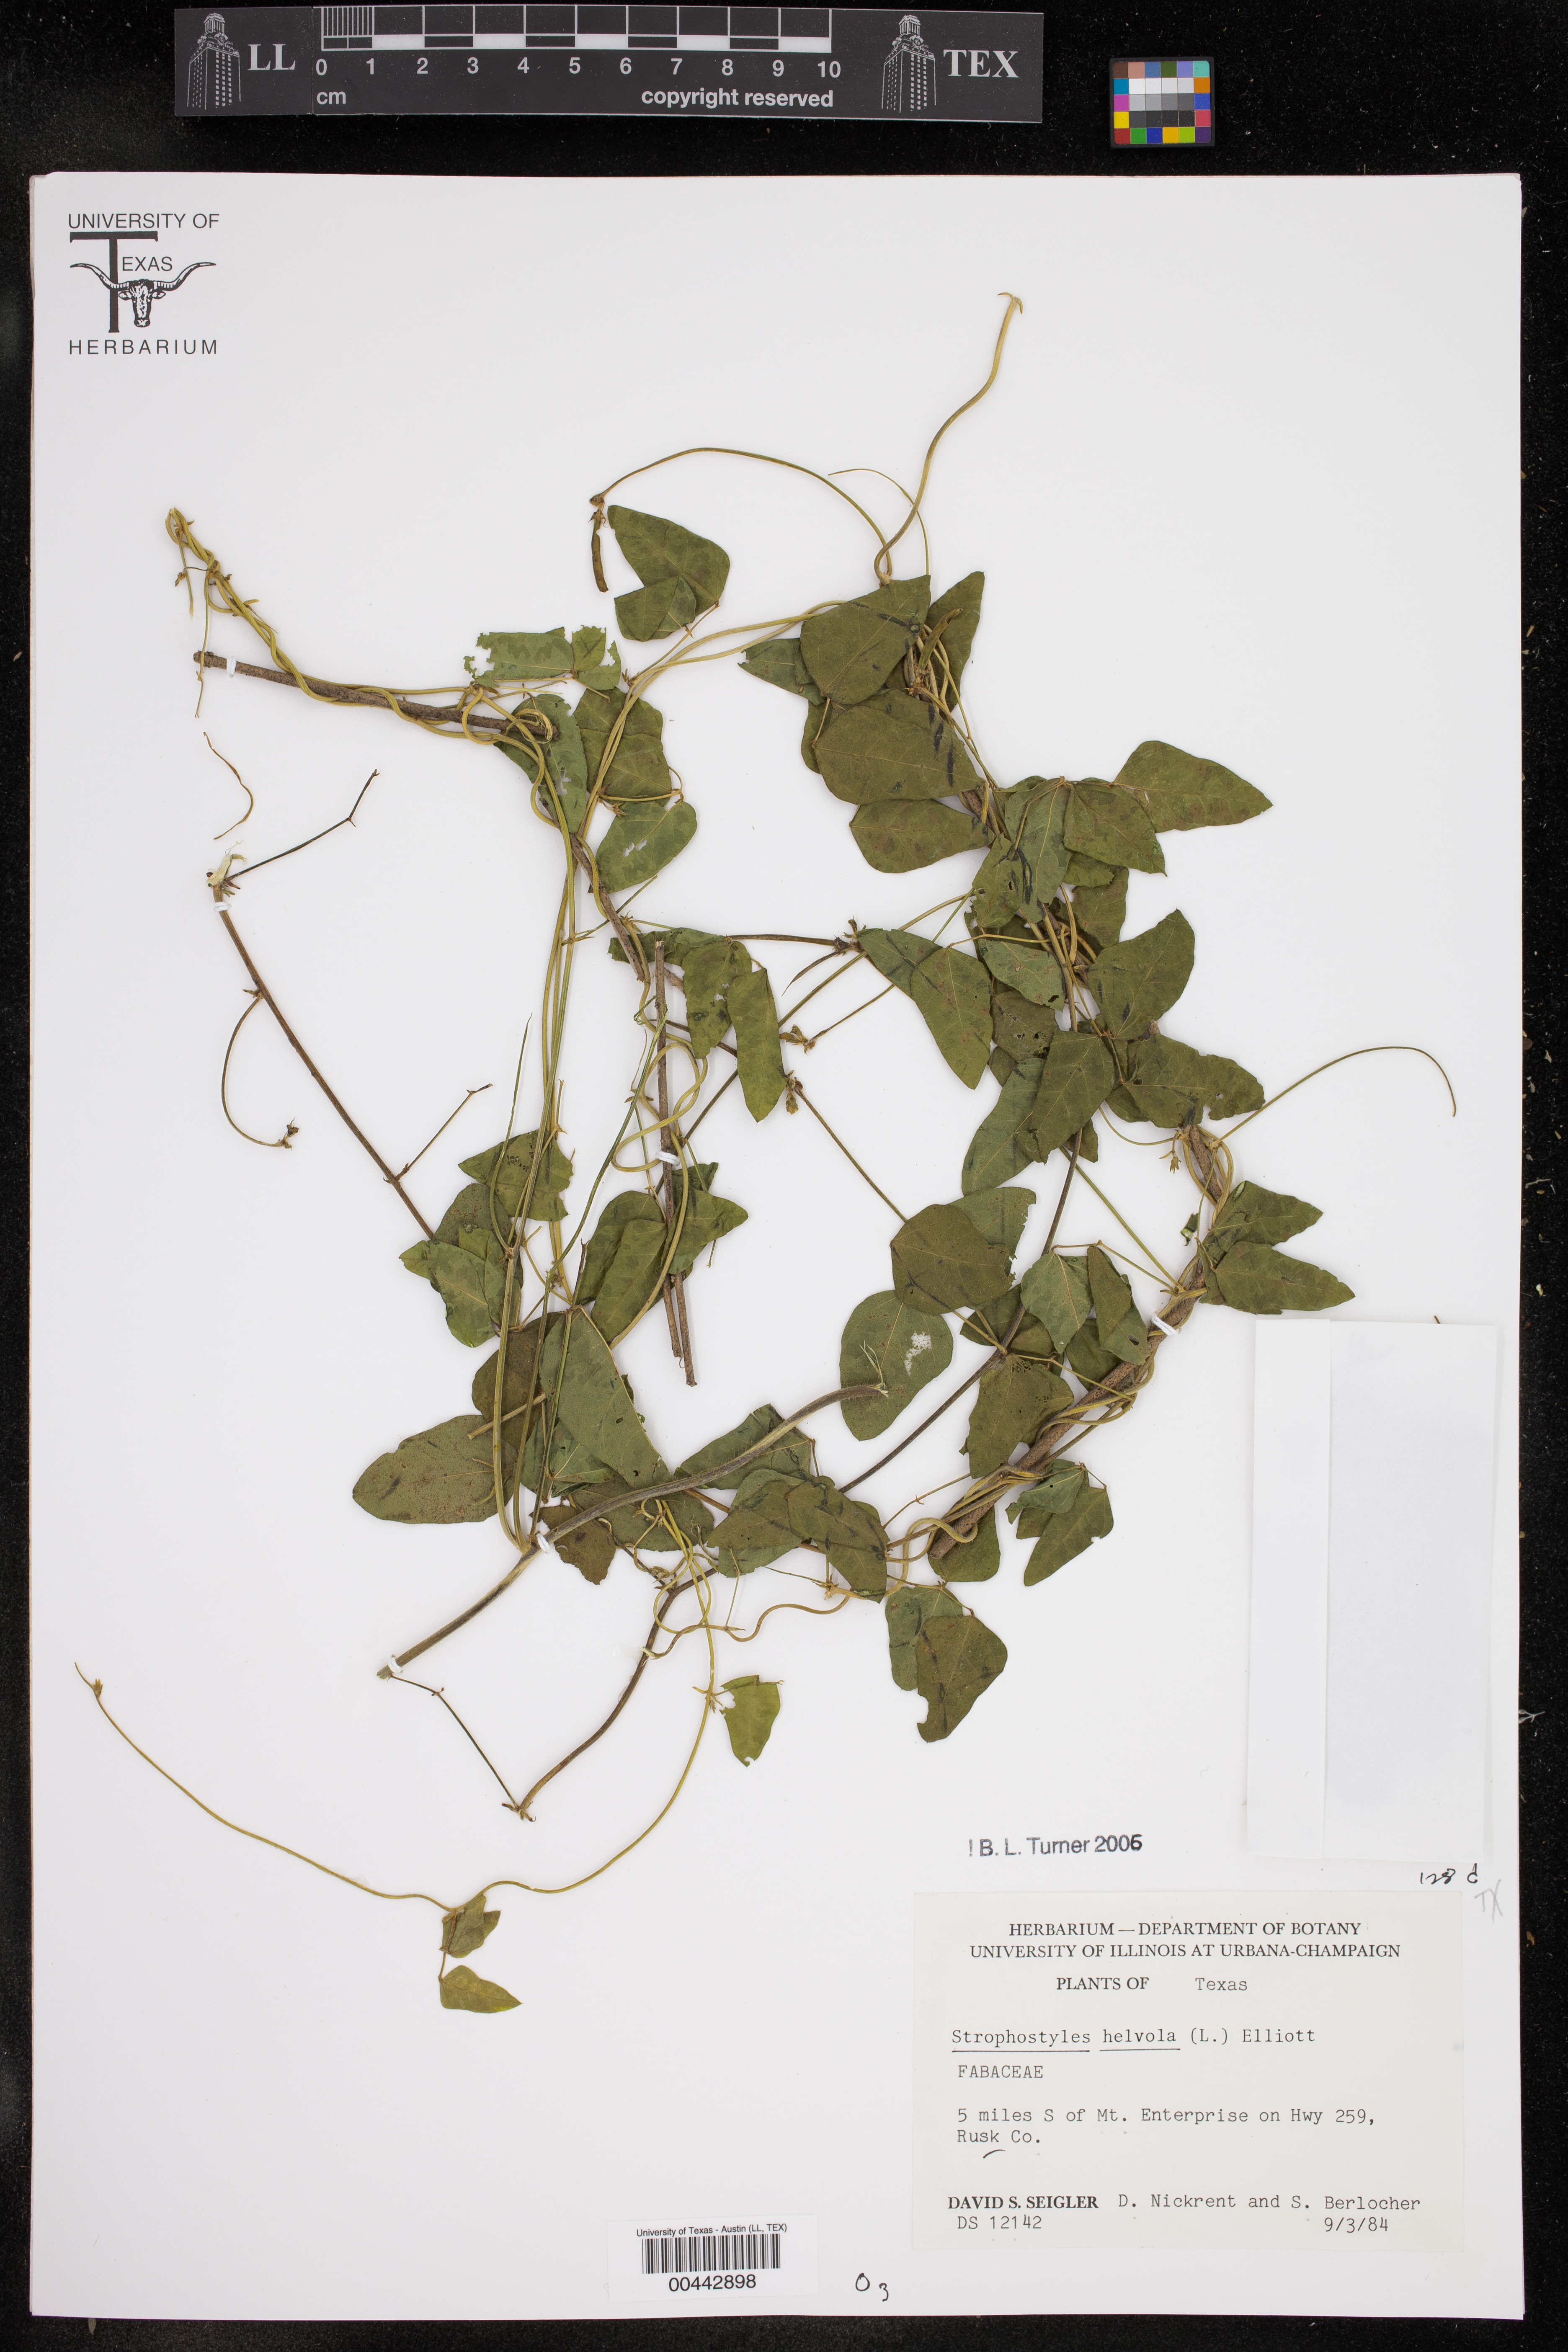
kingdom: Plantae
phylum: Tracheophyta
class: Magnoliopsida
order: Fabales
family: Fabaceae
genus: Strophostyles
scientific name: Strophostyles helvola
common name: Trailing wild bean
